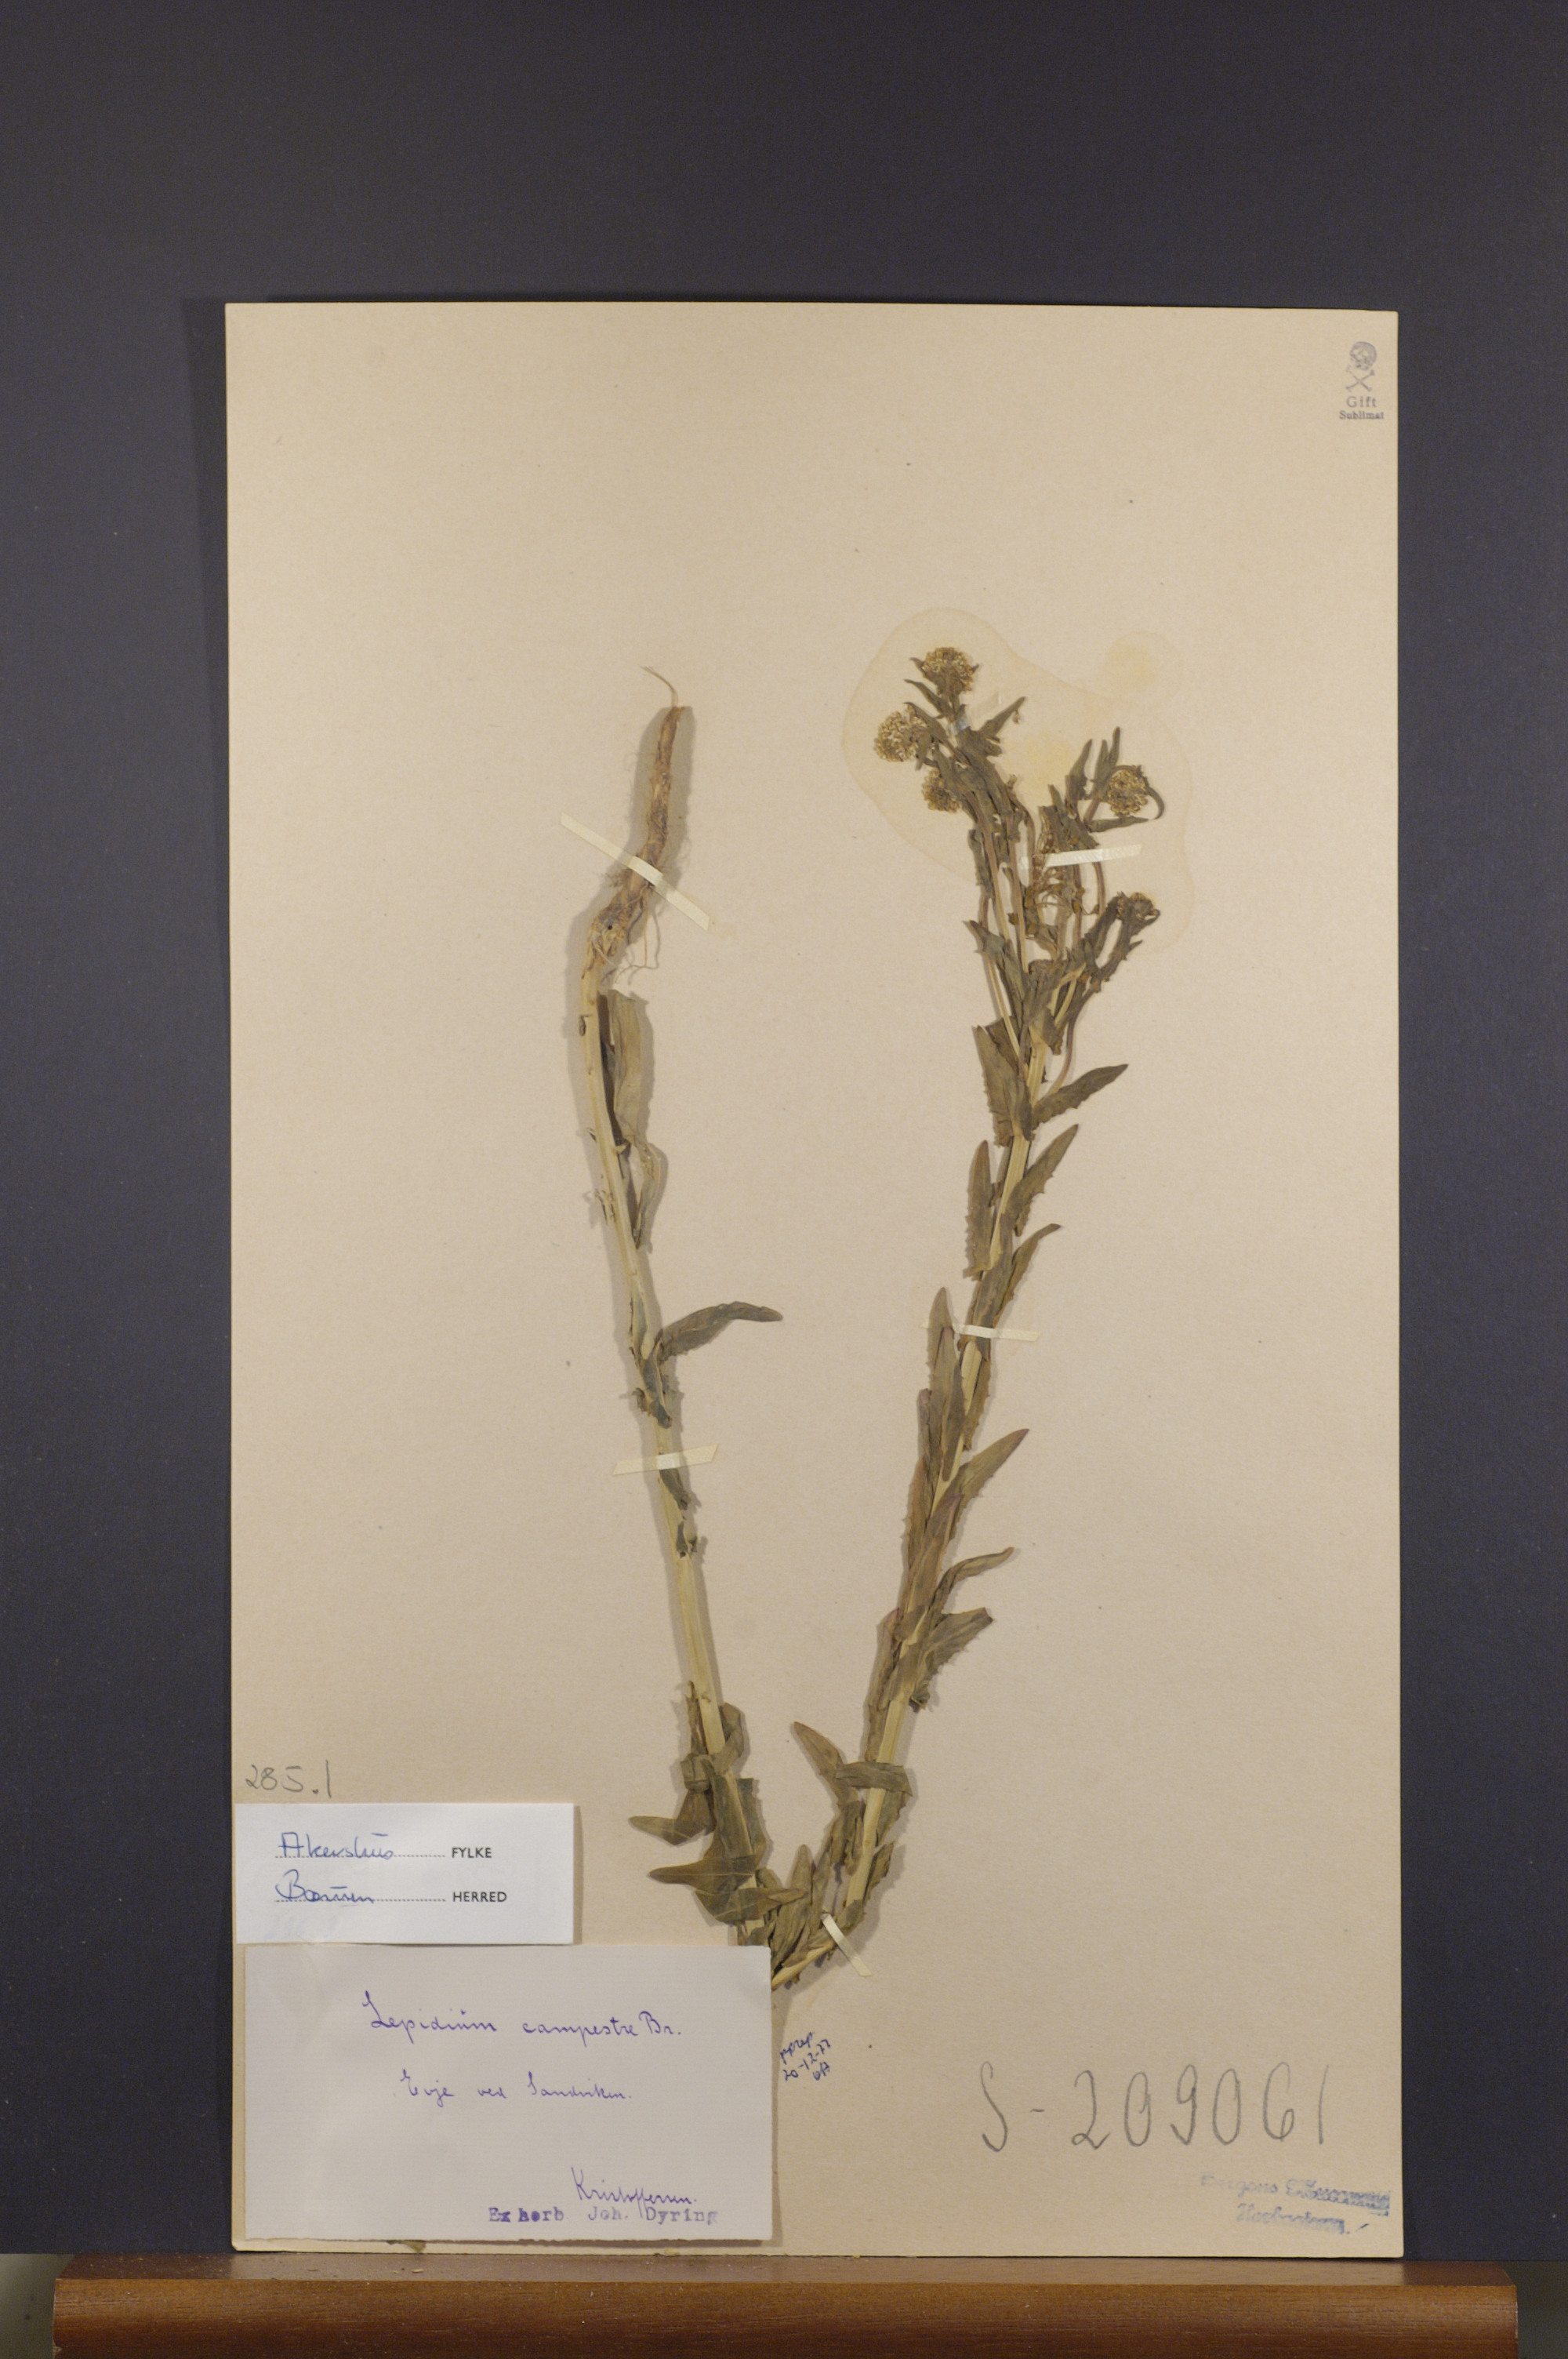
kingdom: Plantae
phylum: Tracheophyta
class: Magnoliopsida
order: Brassicales
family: Brassicaceae
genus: Lepidium
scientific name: Lepidium campestre
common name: Field pepperwort
